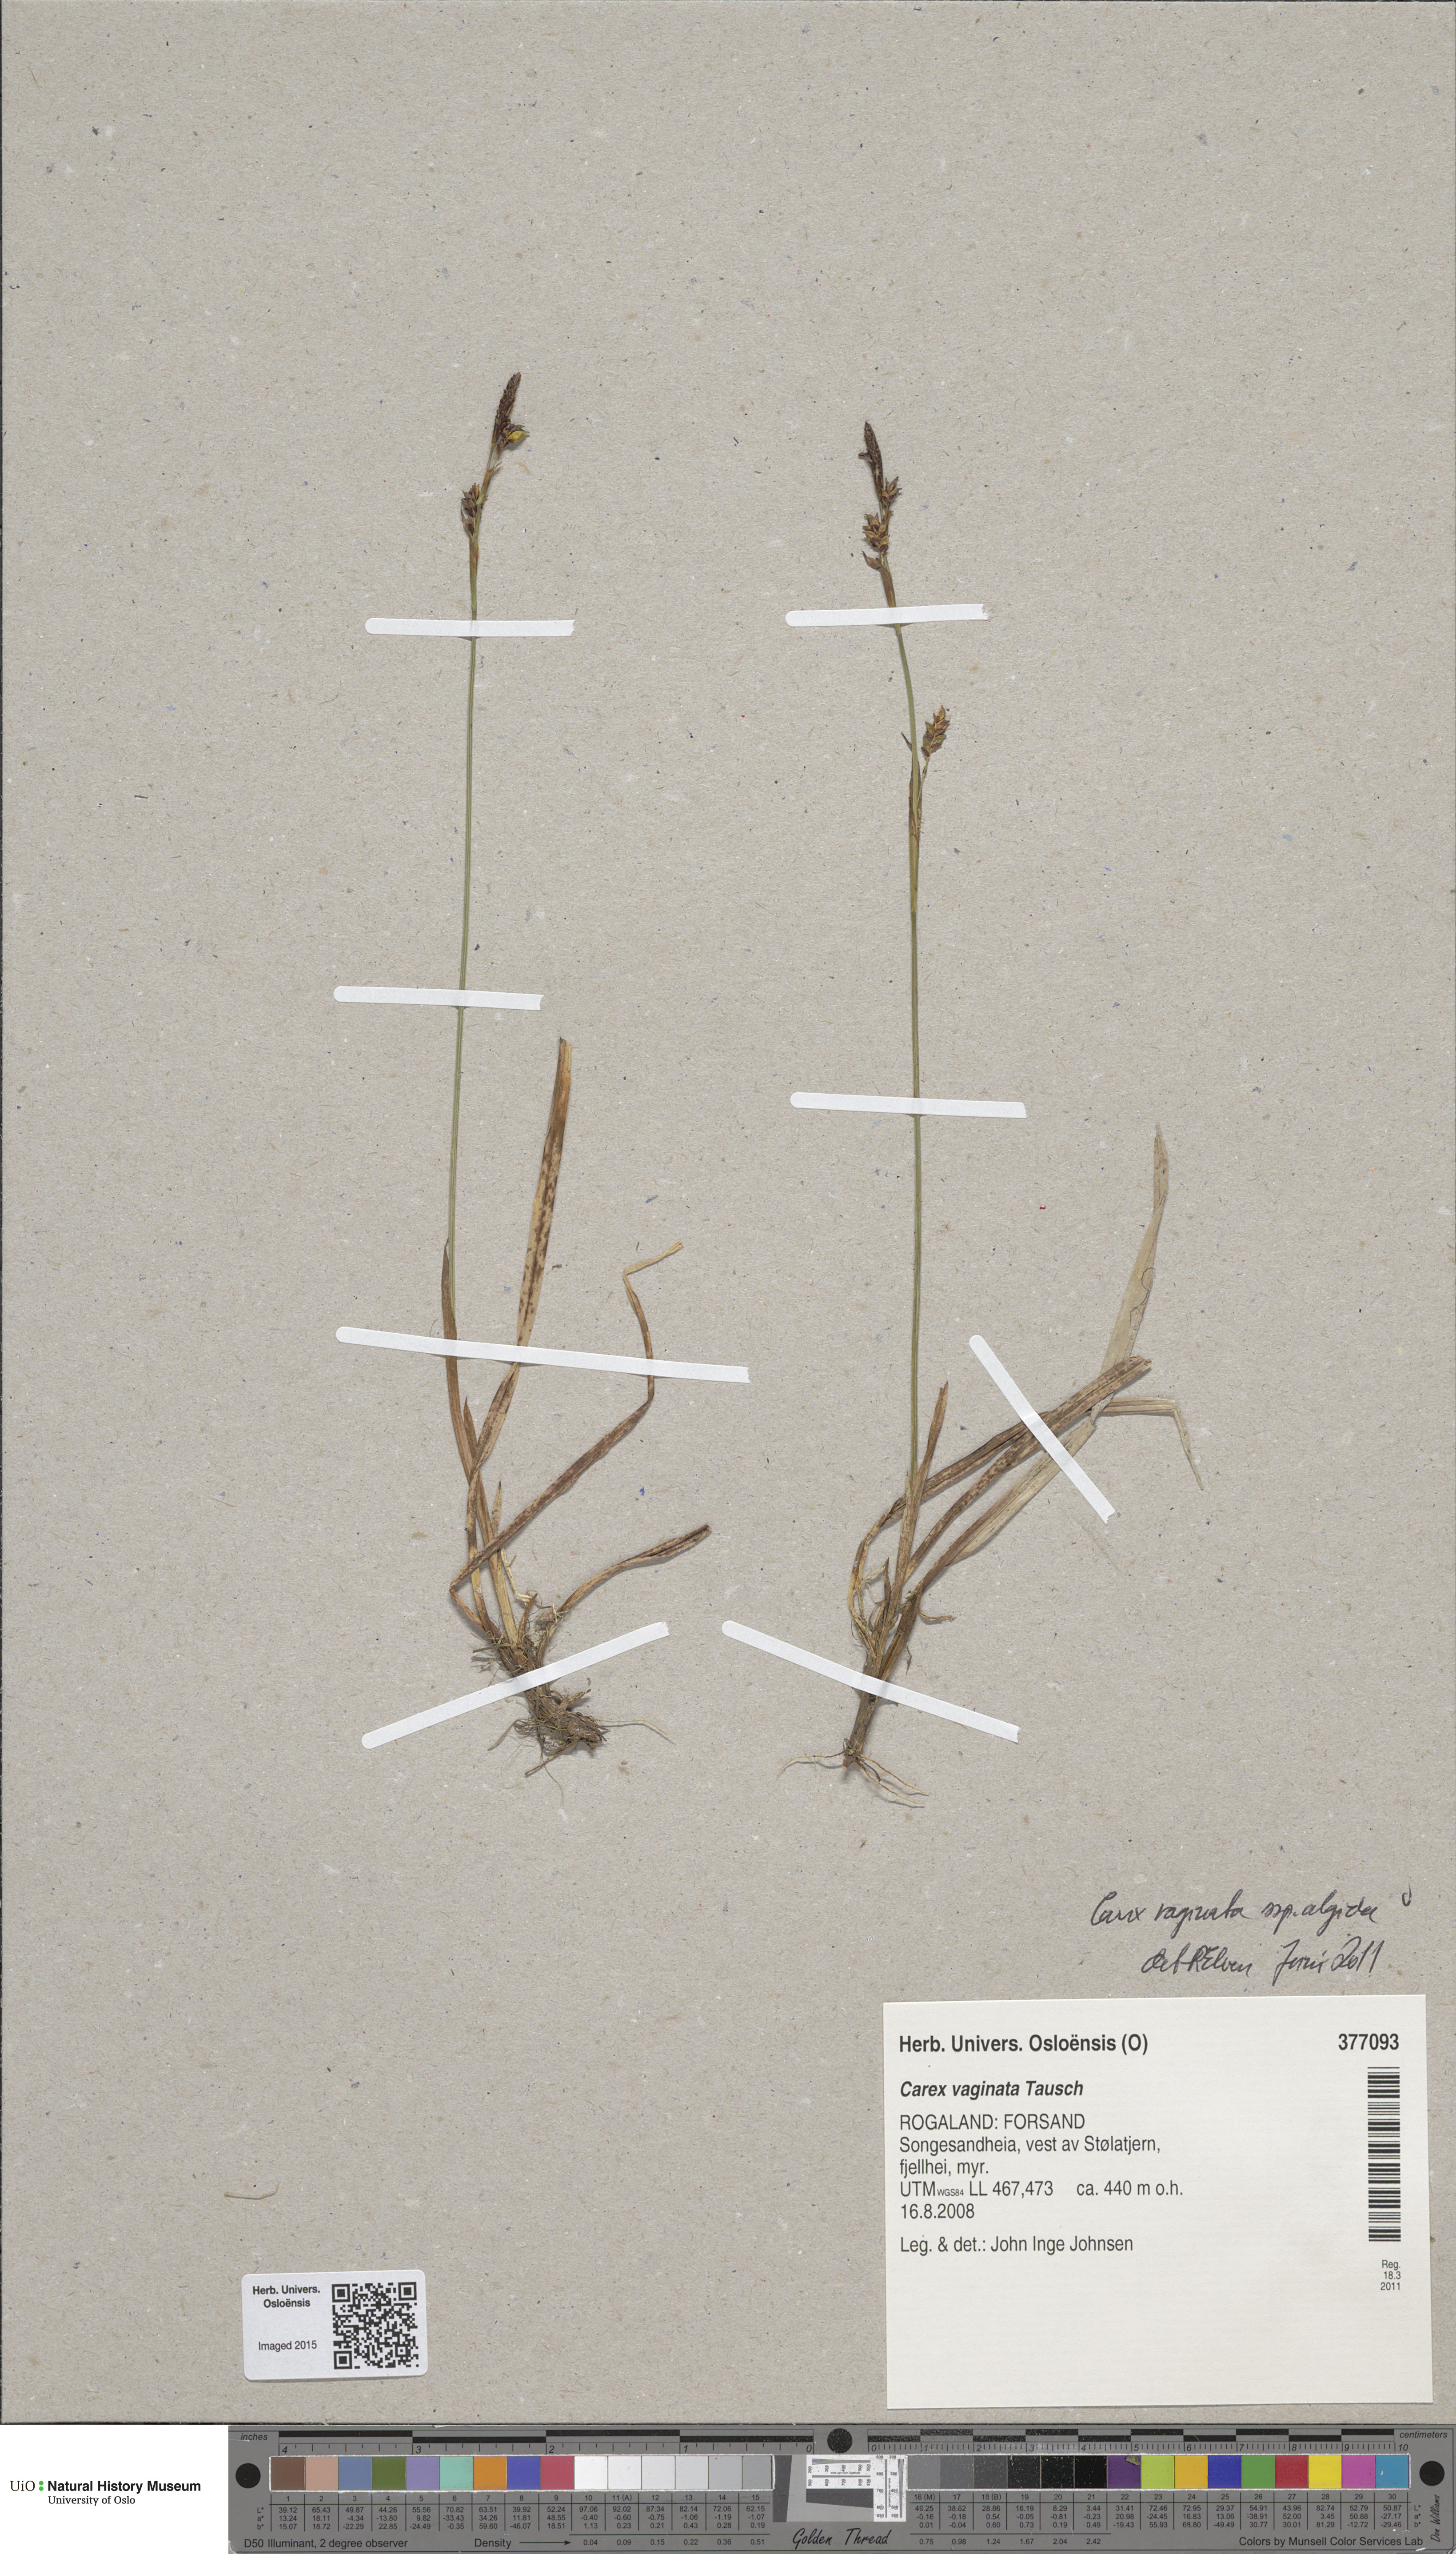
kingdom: Plantae
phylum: Tracheophyta
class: Liliopsida
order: Poales
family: Cyperaceae
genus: Carex
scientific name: Carex algida
